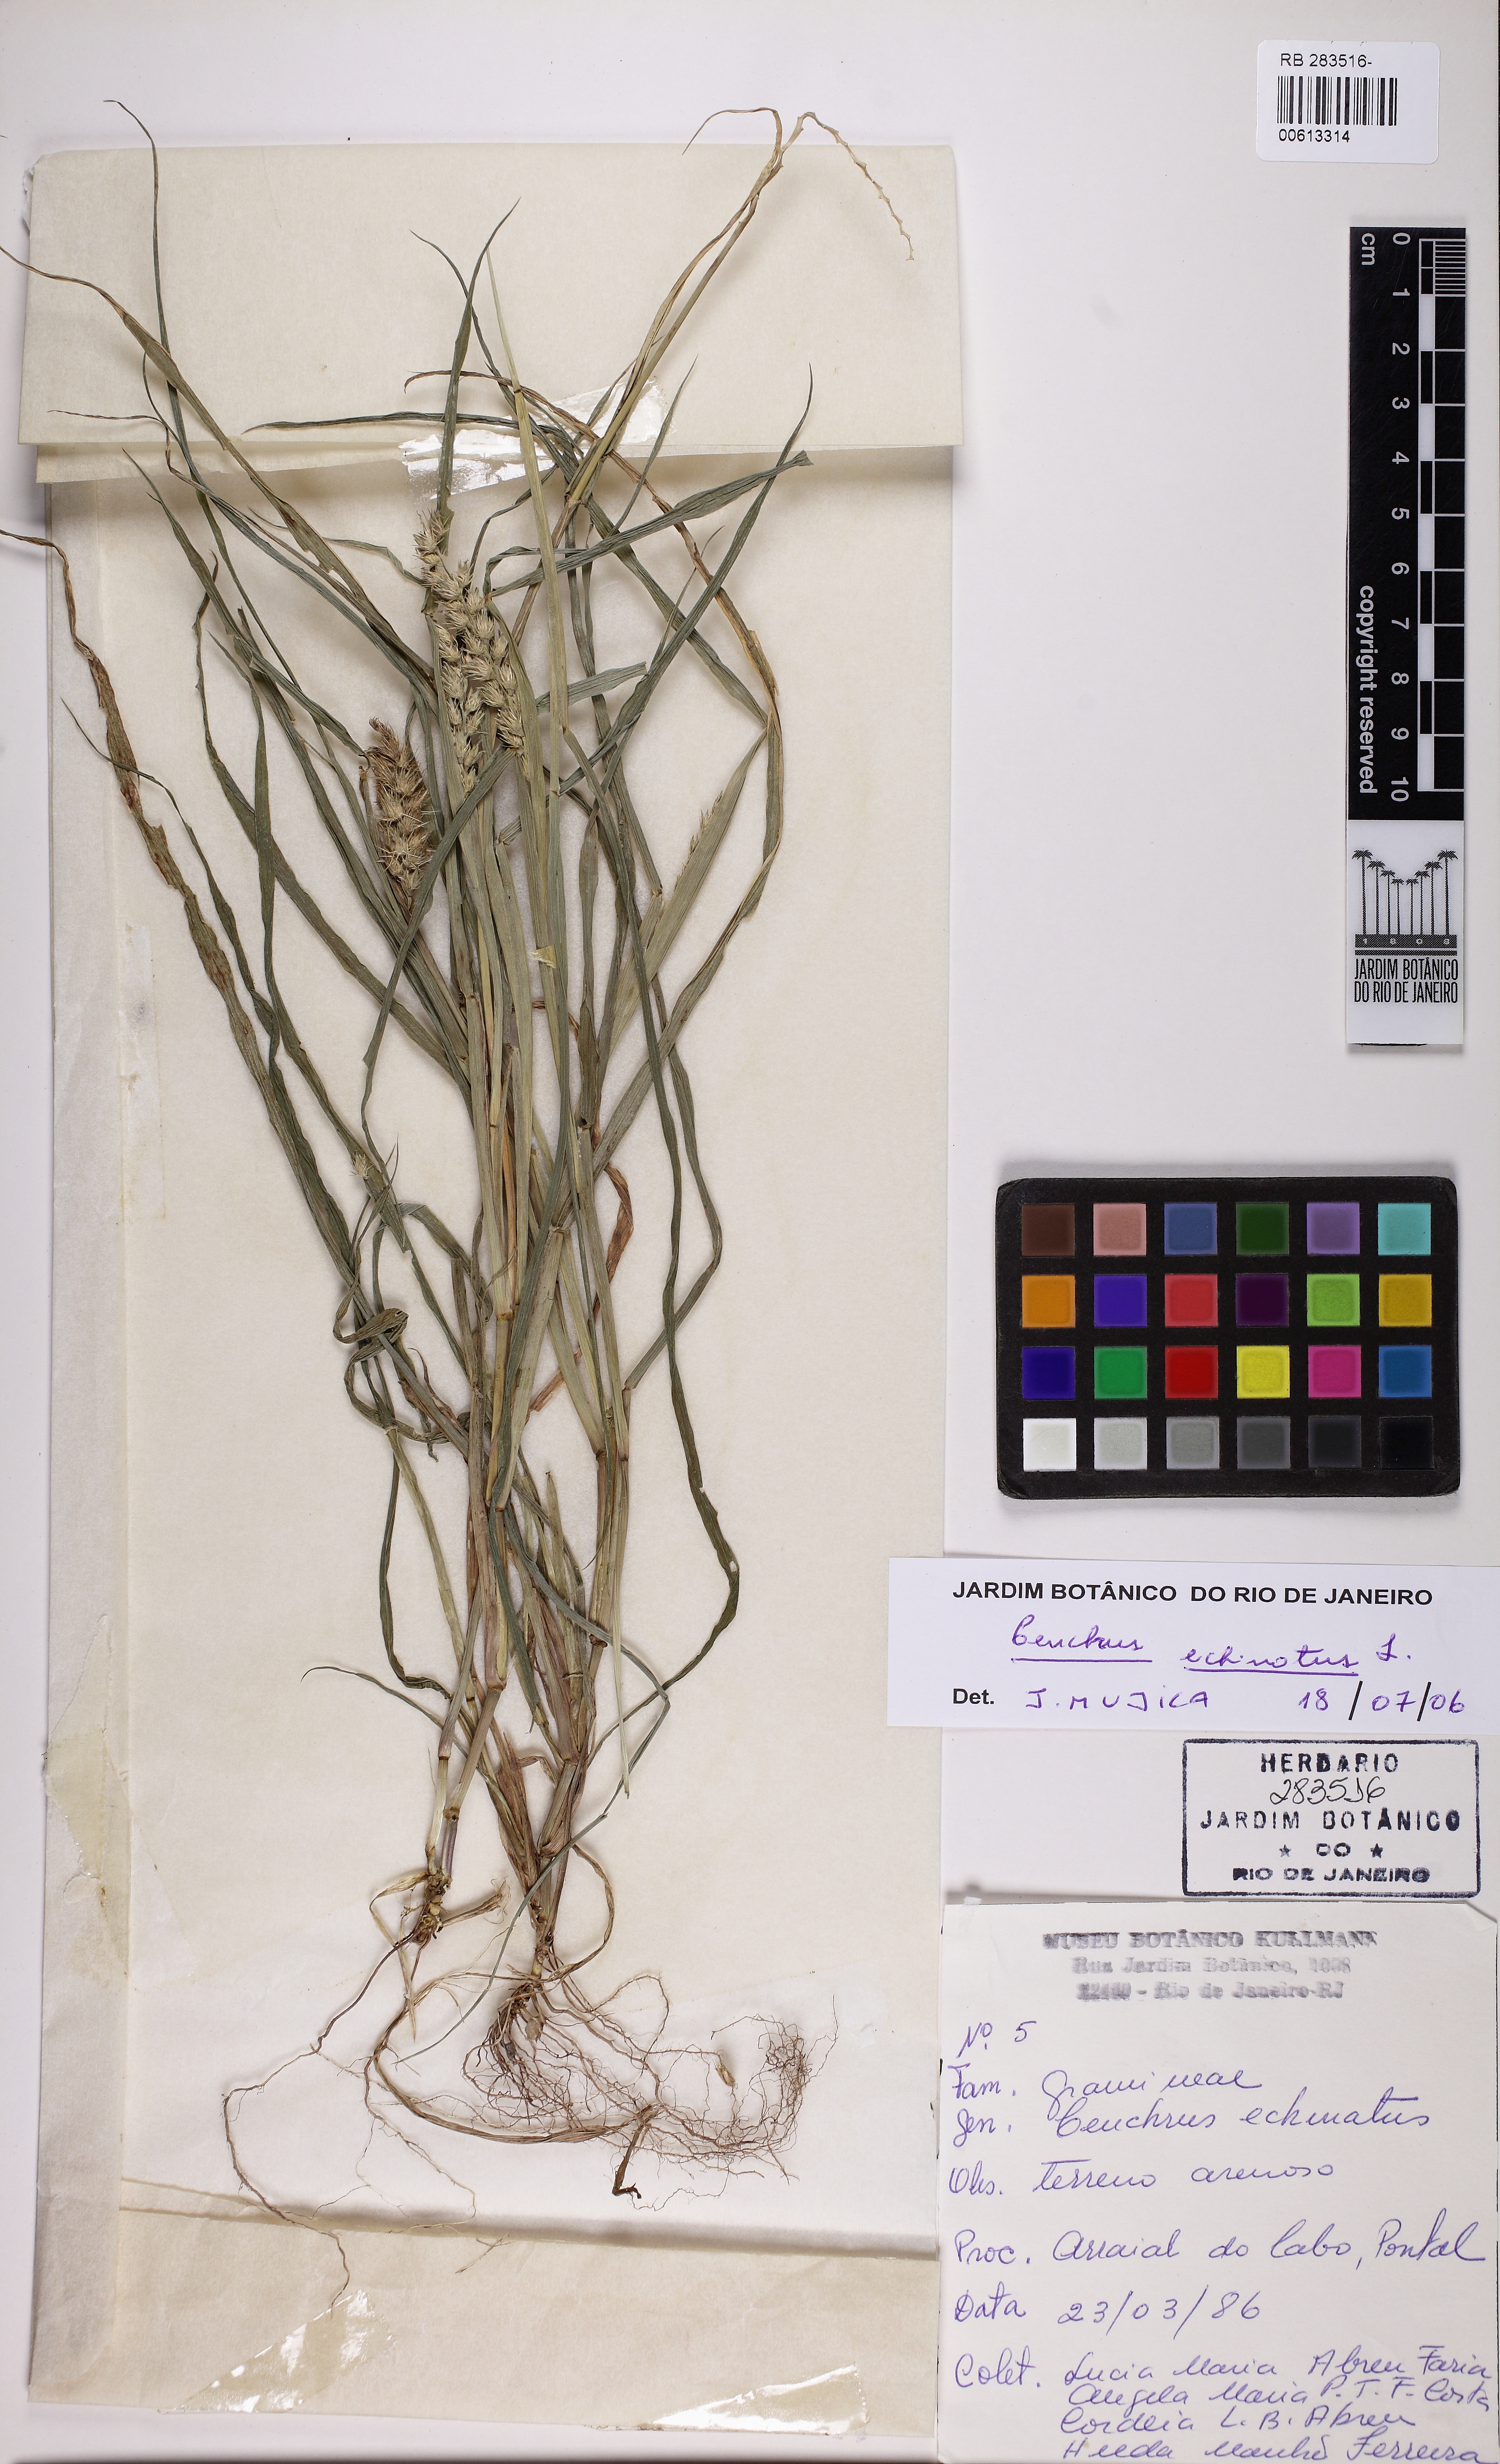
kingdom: Plantae
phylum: Tracheophyta
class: Liliopsida
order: Poales
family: Poaceae
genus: Cenchrus
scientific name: Cenchrus echinatus
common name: Southern sandbur
